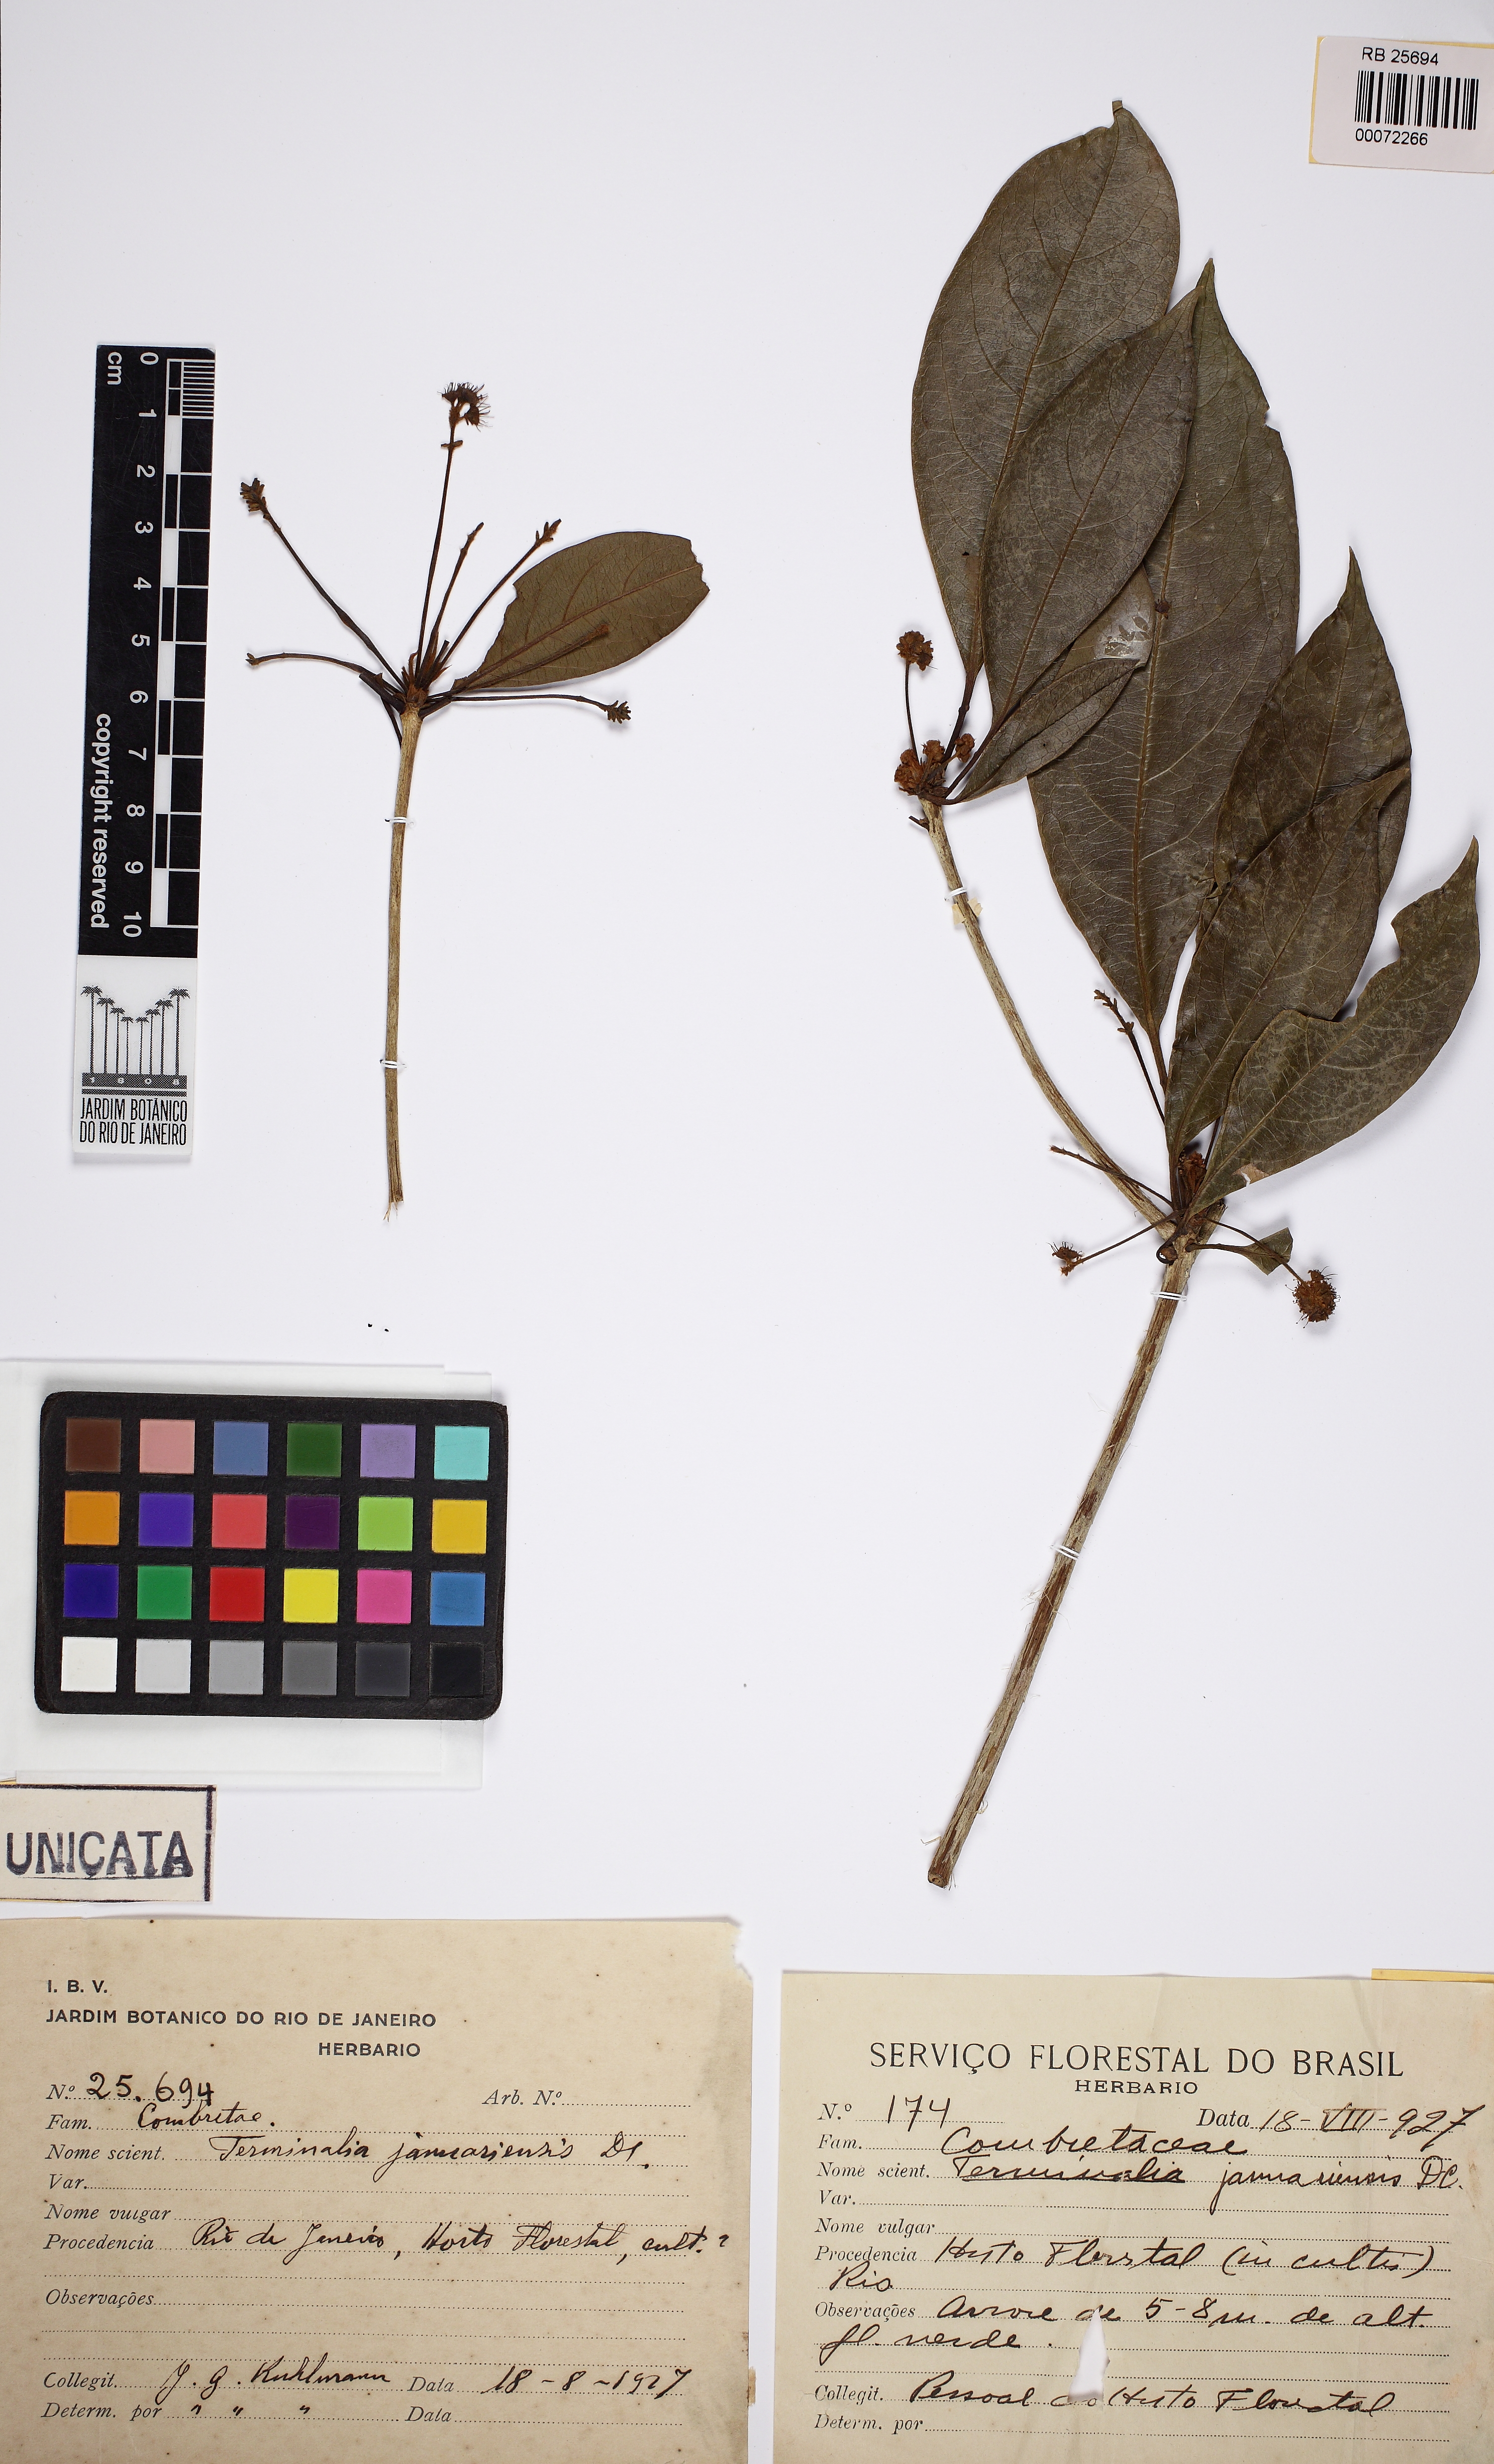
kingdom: Plantae
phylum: Tracheophyta
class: Magnoliopsida
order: Myrtales
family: Combretaceae
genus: Terminalia
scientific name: Terminalia januariensis
